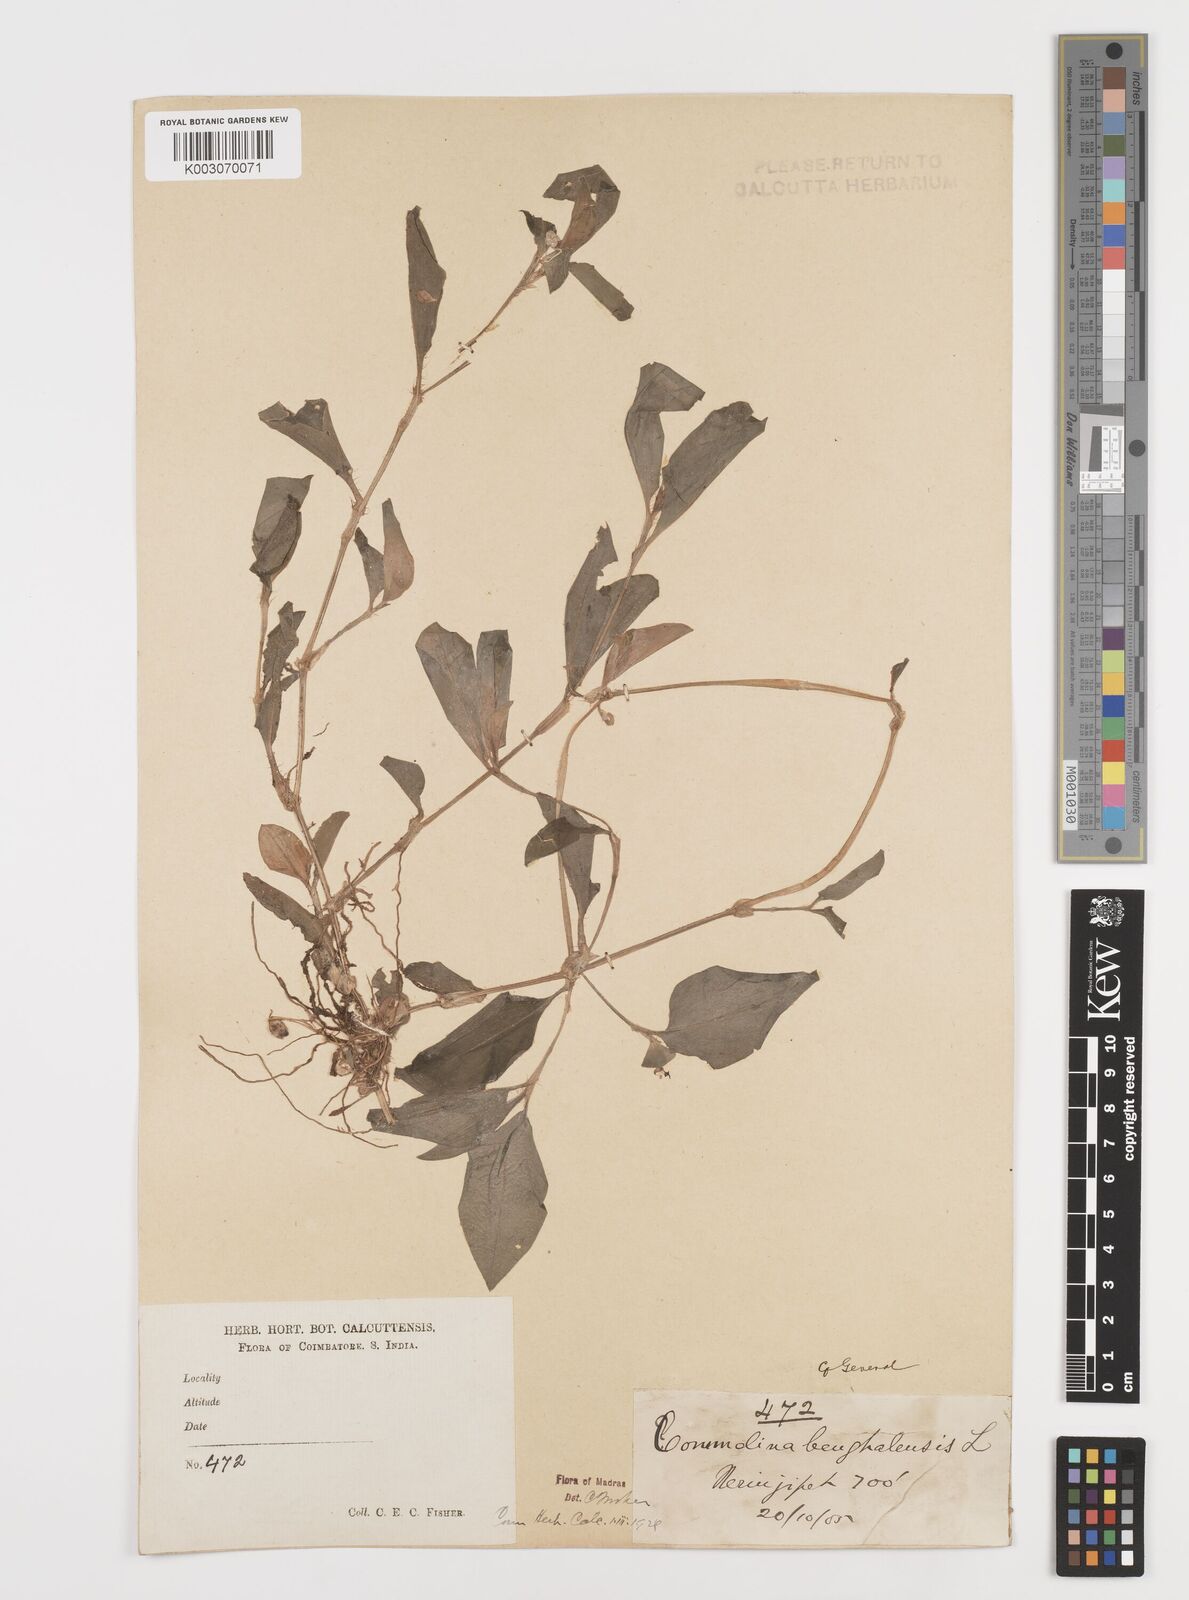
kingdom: Plantae
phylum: Tracheophyta
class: Liliopsida
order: Commelinales
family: Commelinaceae
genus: Commelina
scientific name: Commelina benghalensis
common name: Jio
